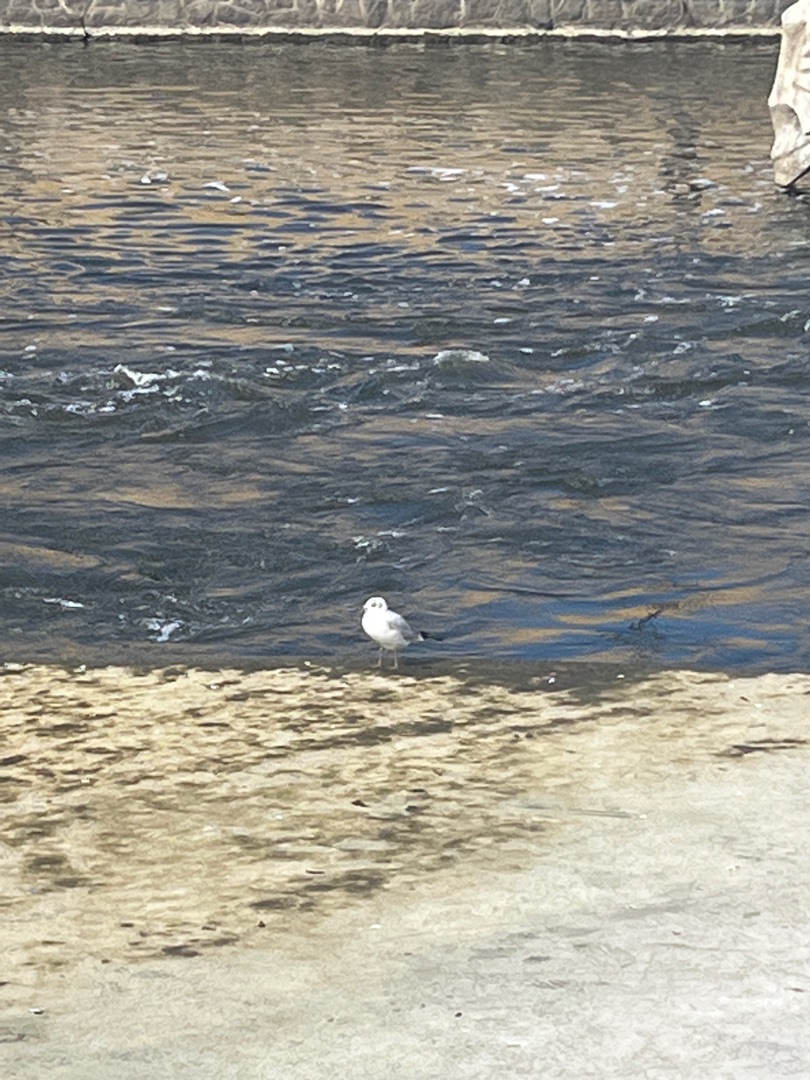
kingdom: Animalia
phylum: Chordata
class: Aves
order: Charadriiformes
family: Laridae
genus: Chroicocephalus
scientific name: Chroicocephalus ridibundus
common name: Hættemåge
